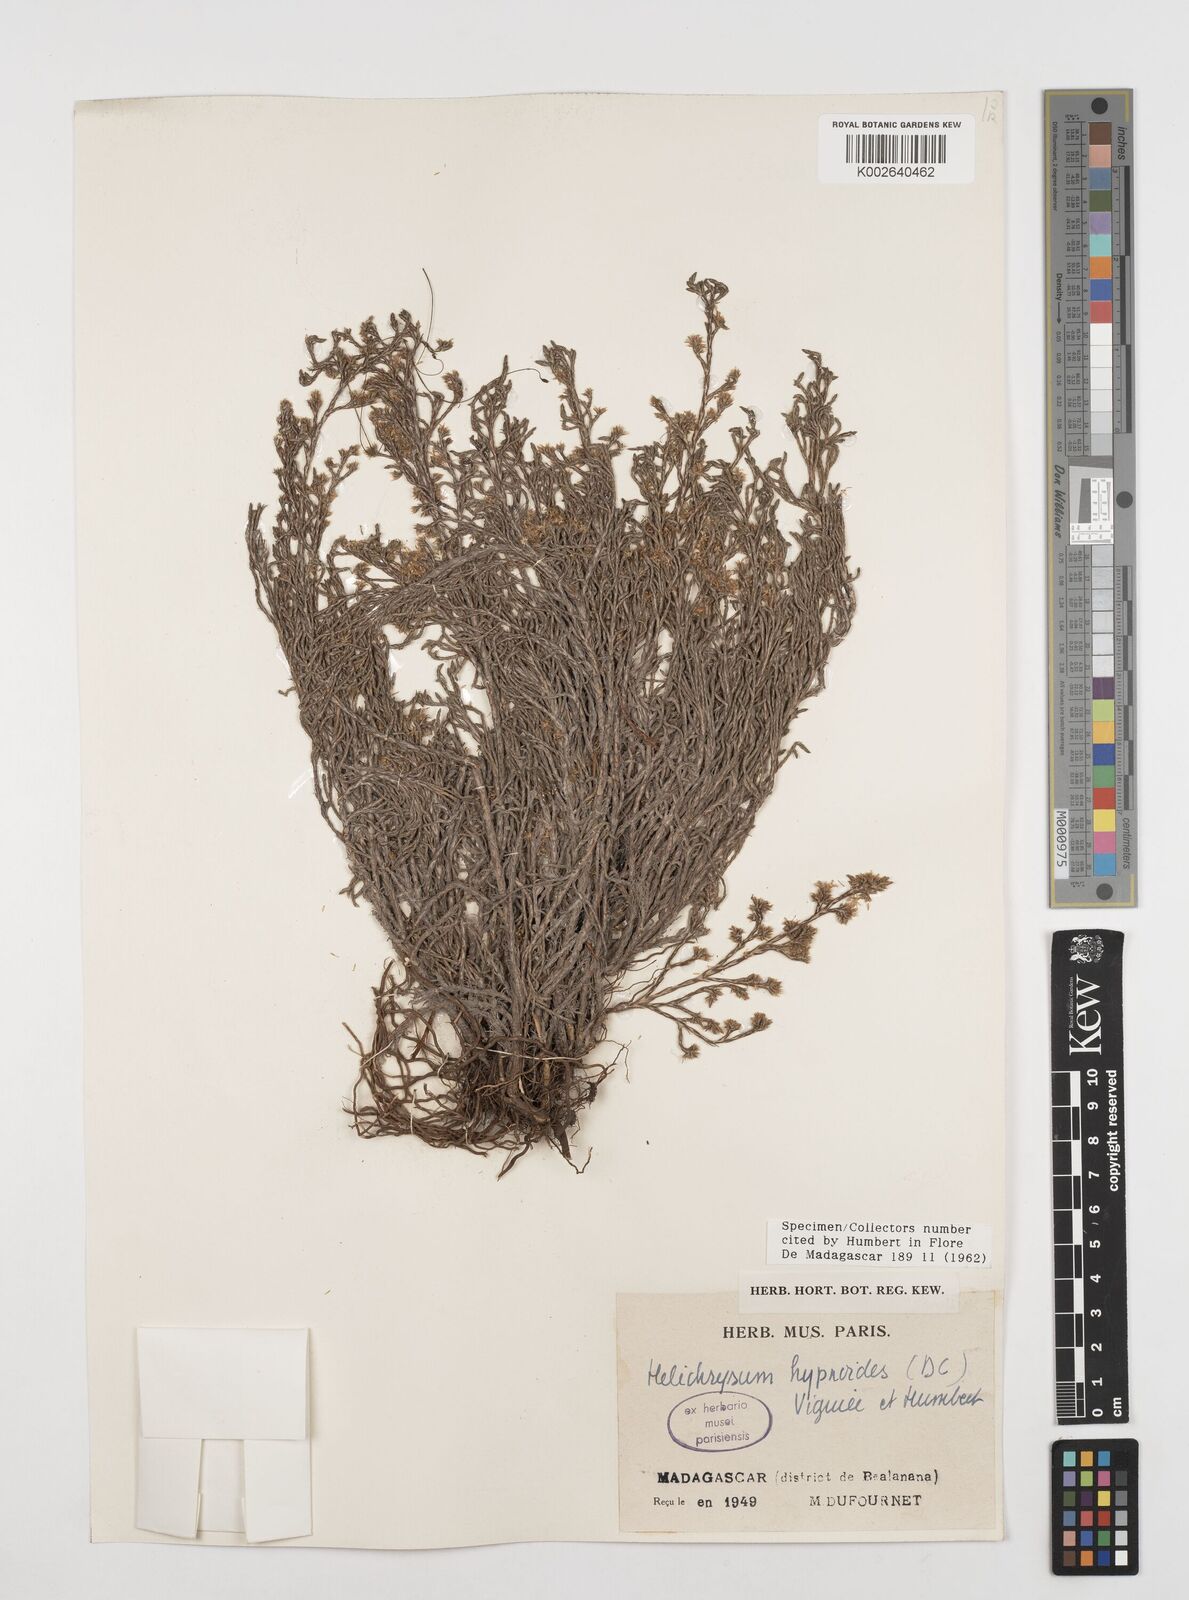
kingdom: Plantae
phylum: Tracheophyta
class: Magnoliopsida
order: Asterales
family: Asteraceae
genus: Aphelexis
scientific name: Aphelexis hypnoides
